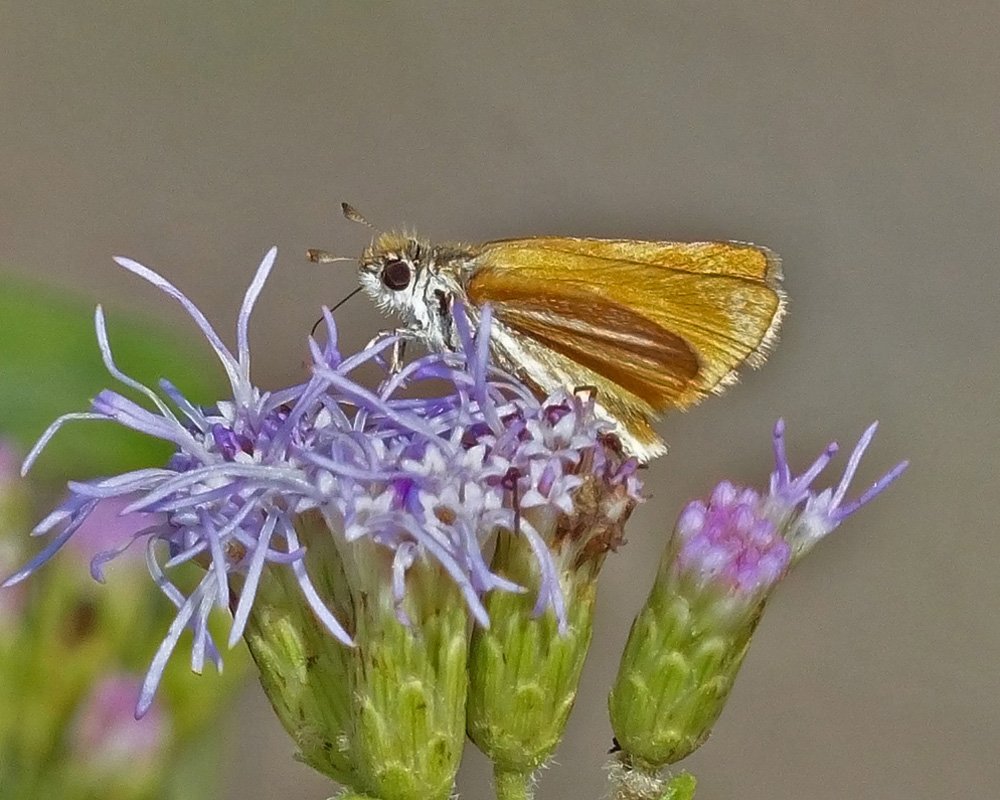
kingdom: Animalia
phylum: Arthropoda
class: Insecta
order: Lepidoptera
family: Hesperiidae
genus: Copaeodes
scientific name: Copaeodes minima
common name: Southern Skipperling
